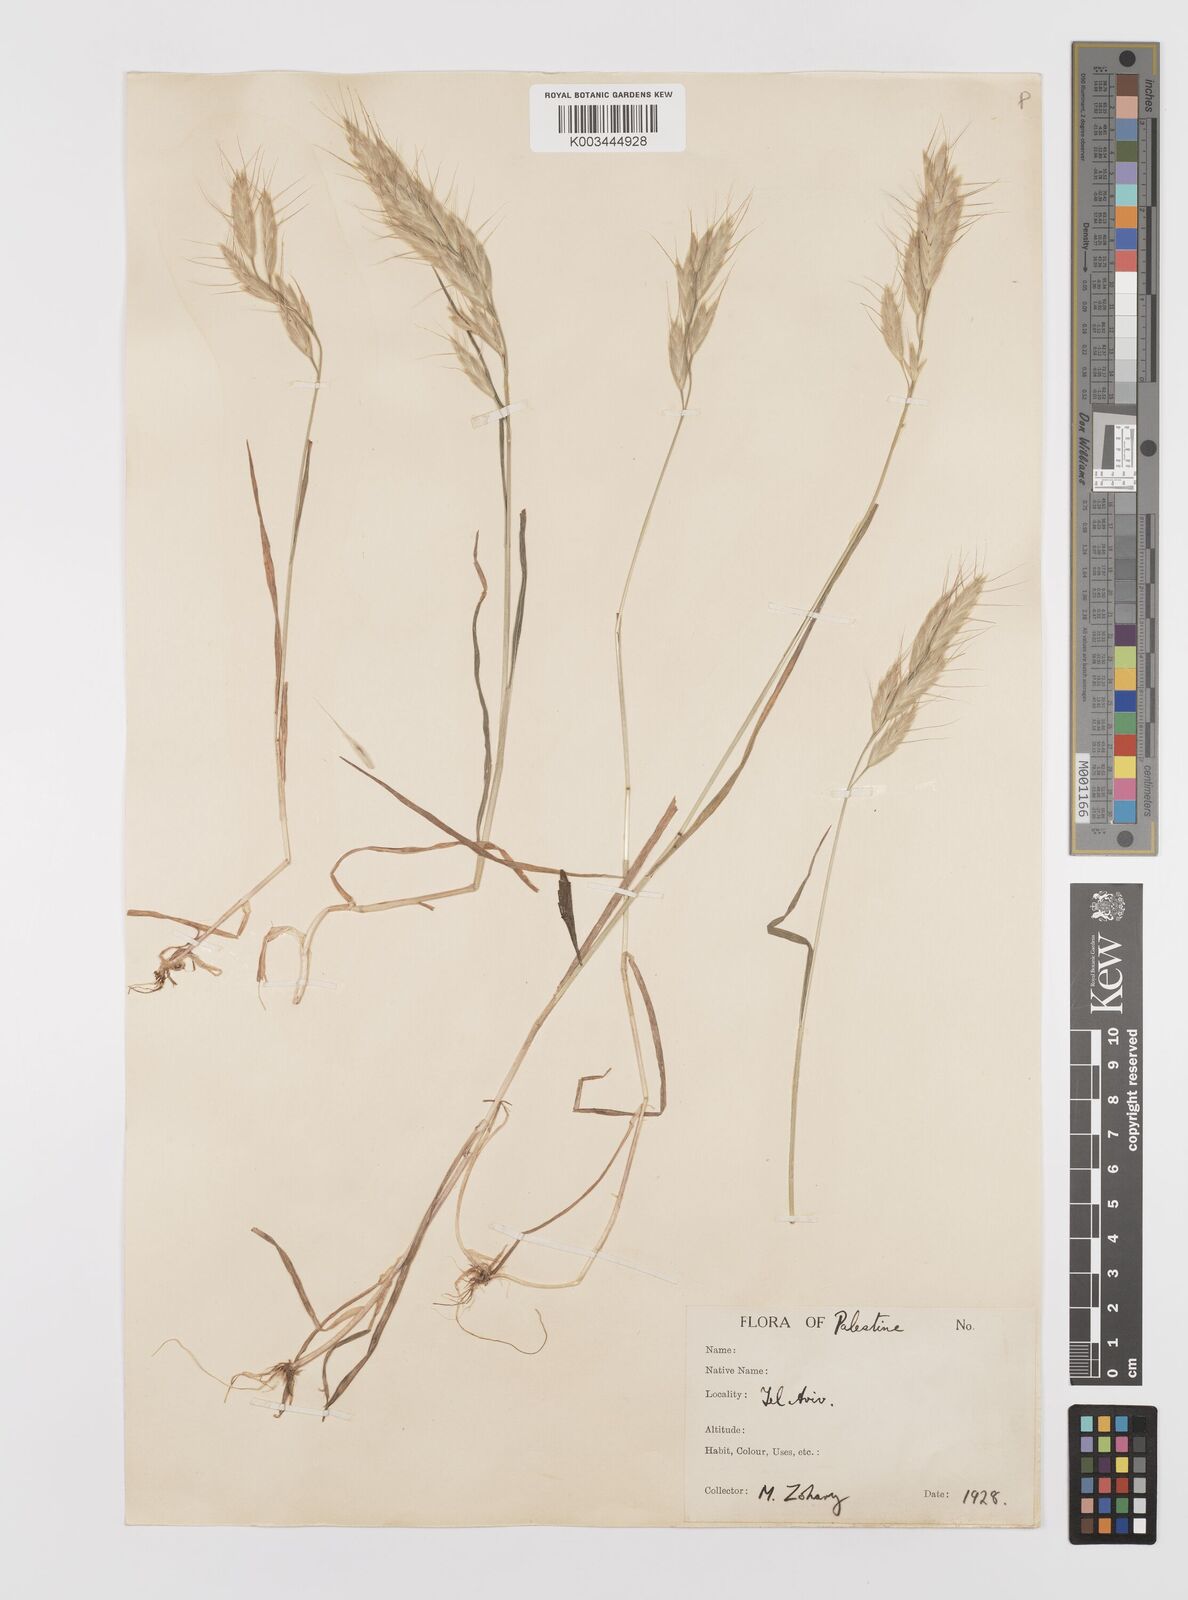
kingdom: Plantae
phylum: Tracheophyta
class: Liliopsida
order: Poales
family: Poaceae
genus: Bromus
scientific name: Bromus lanceolatus
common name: Mediterranean brome
